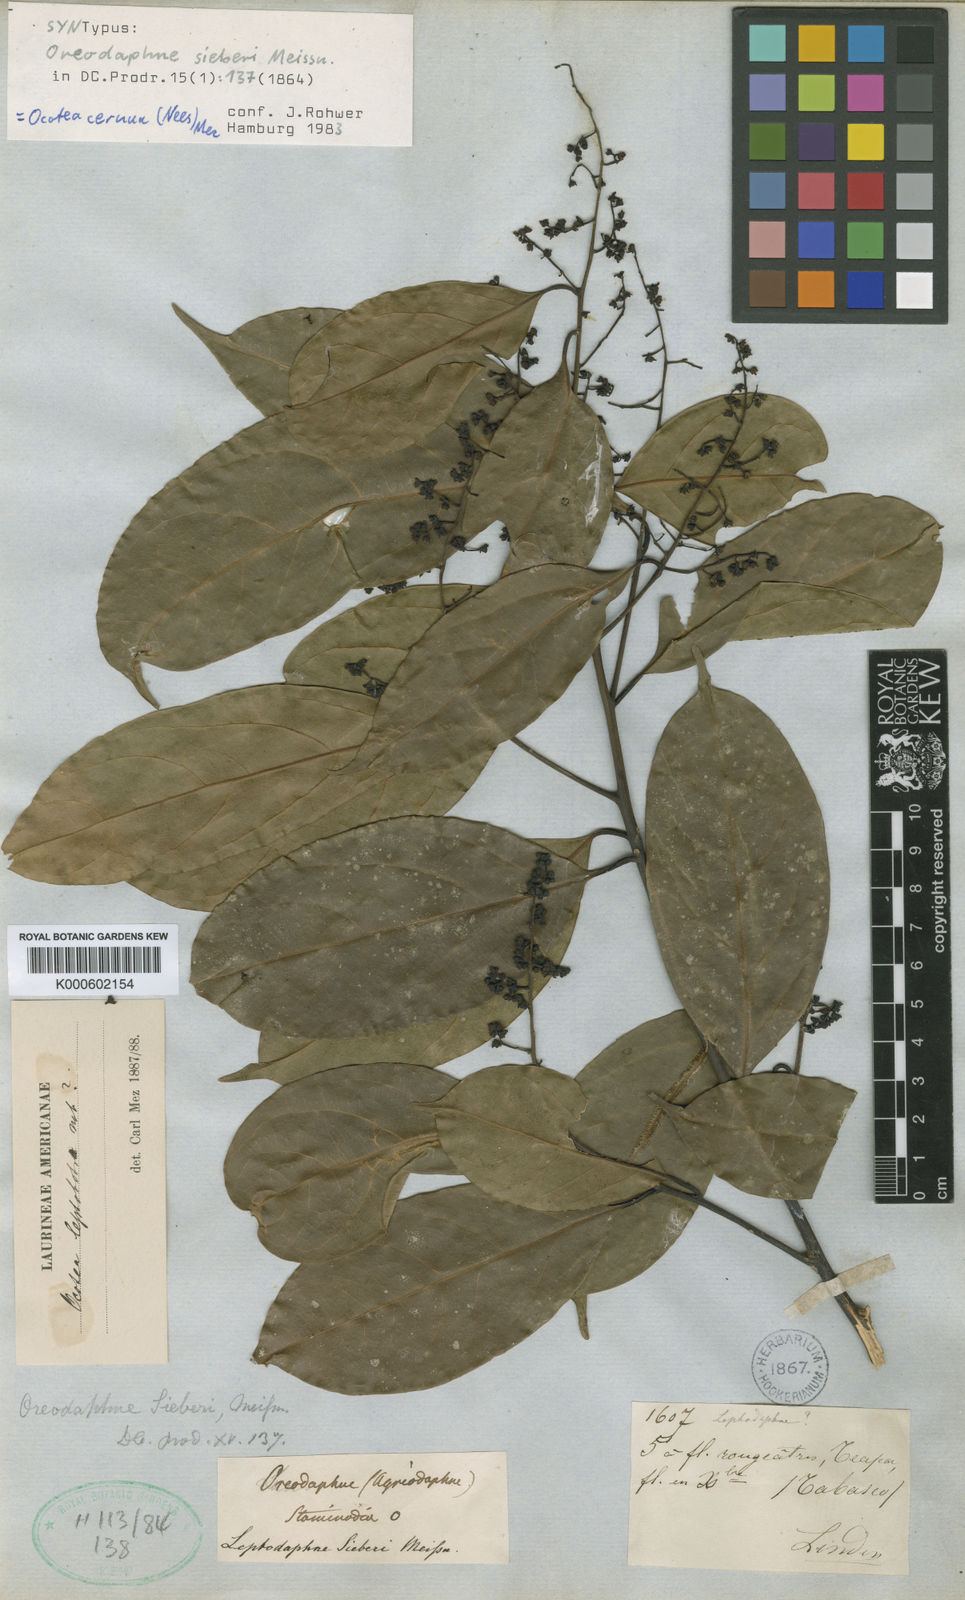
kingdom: Plantae
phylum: Tracheophyta
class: Magnoliopsida
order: Laurales
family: Lauraceae
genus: Ocotea
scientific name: Ocotea leptobotra
